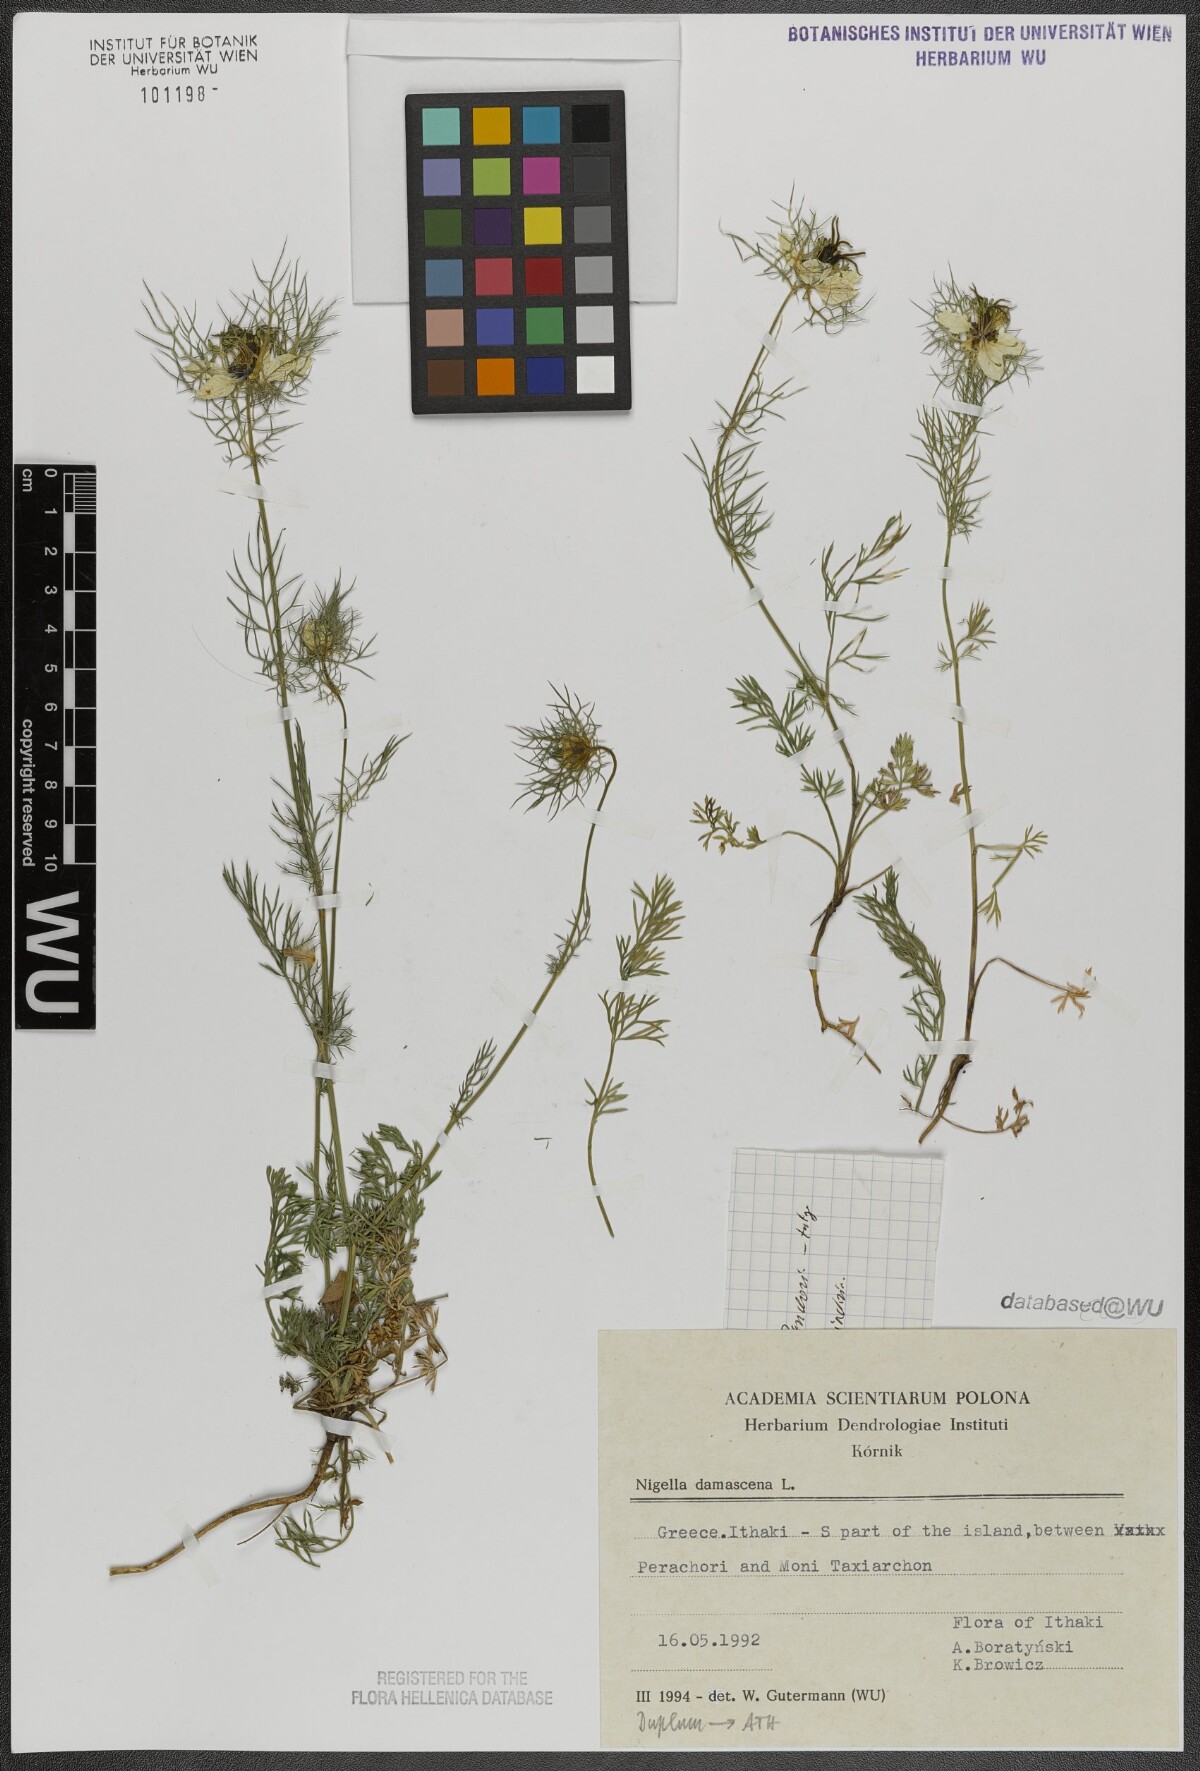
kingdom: Plantae
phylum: Tracheophyta
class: Magnoliopsida
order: Ranunculales
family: Ranunculaceae
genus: Nigella
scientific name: Nigella damascena
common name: Love-in-a-mist
